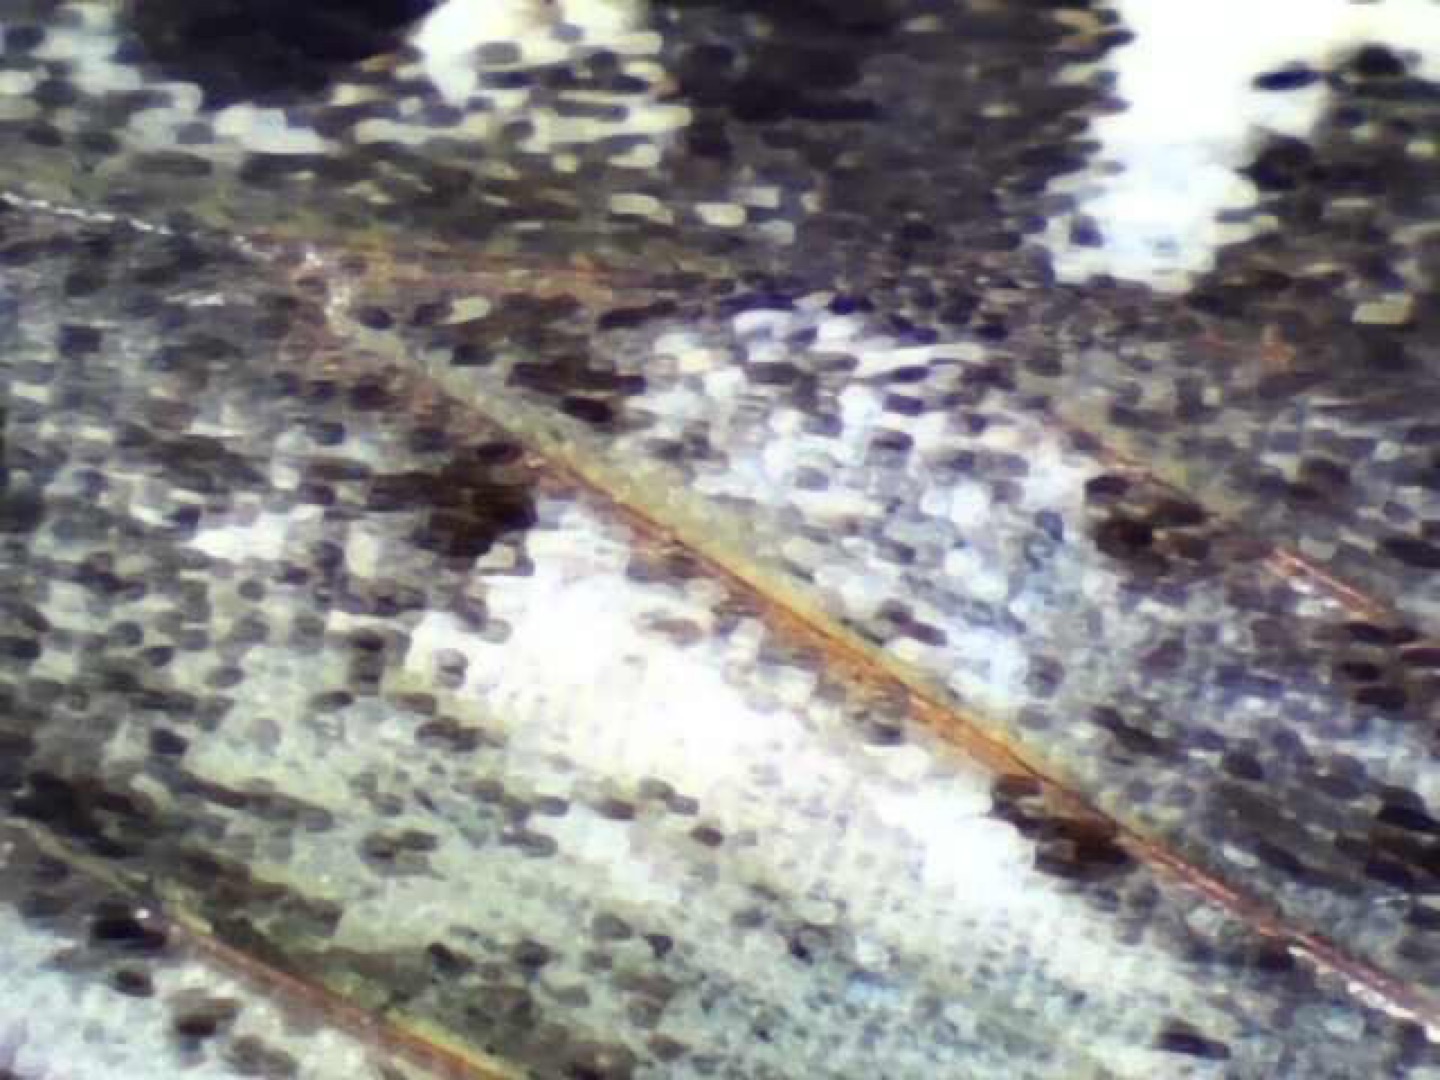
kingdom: Animalia
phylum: Arthropoda
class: Insecta
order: Lepidoptera
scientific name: Lepidoptera
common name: Sommerfugle
